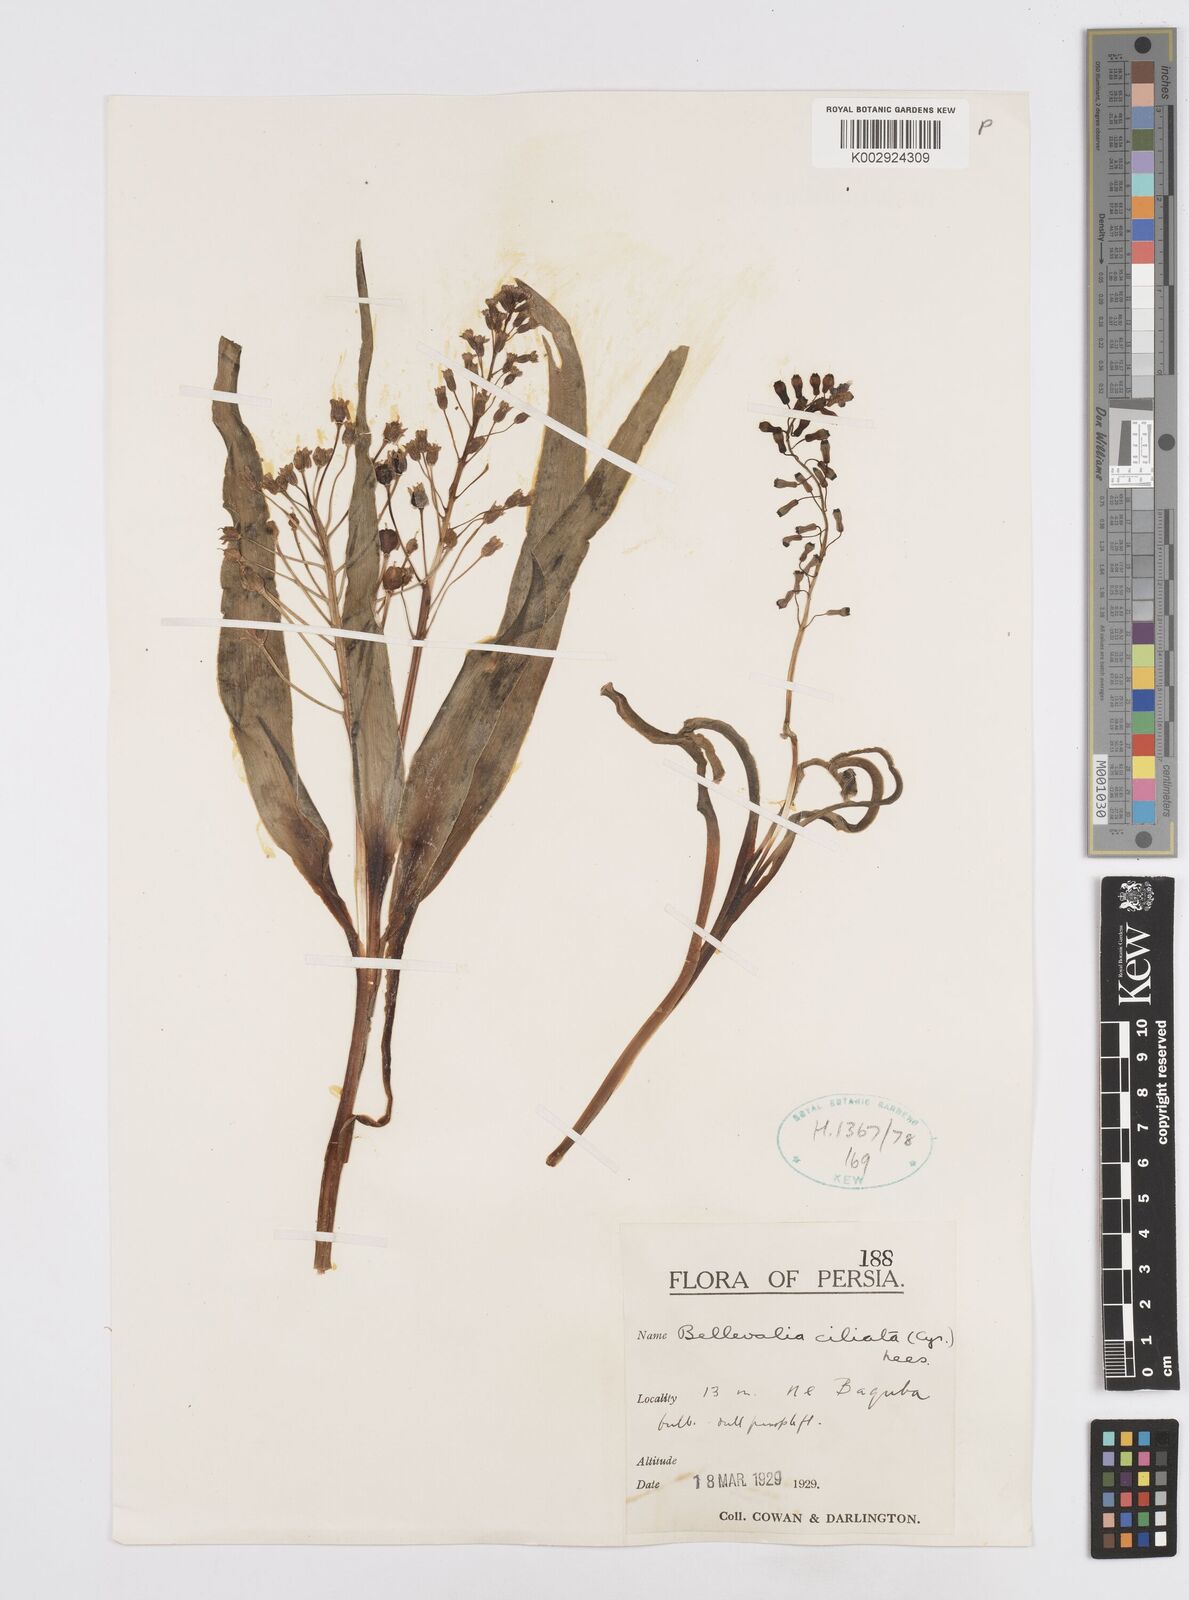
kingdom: Plantae
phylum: Tracheophyta
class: Liliopsida
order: Asparagales
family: Asparagaceae
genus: Bellevalia
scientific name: Bellevalia ciliata
